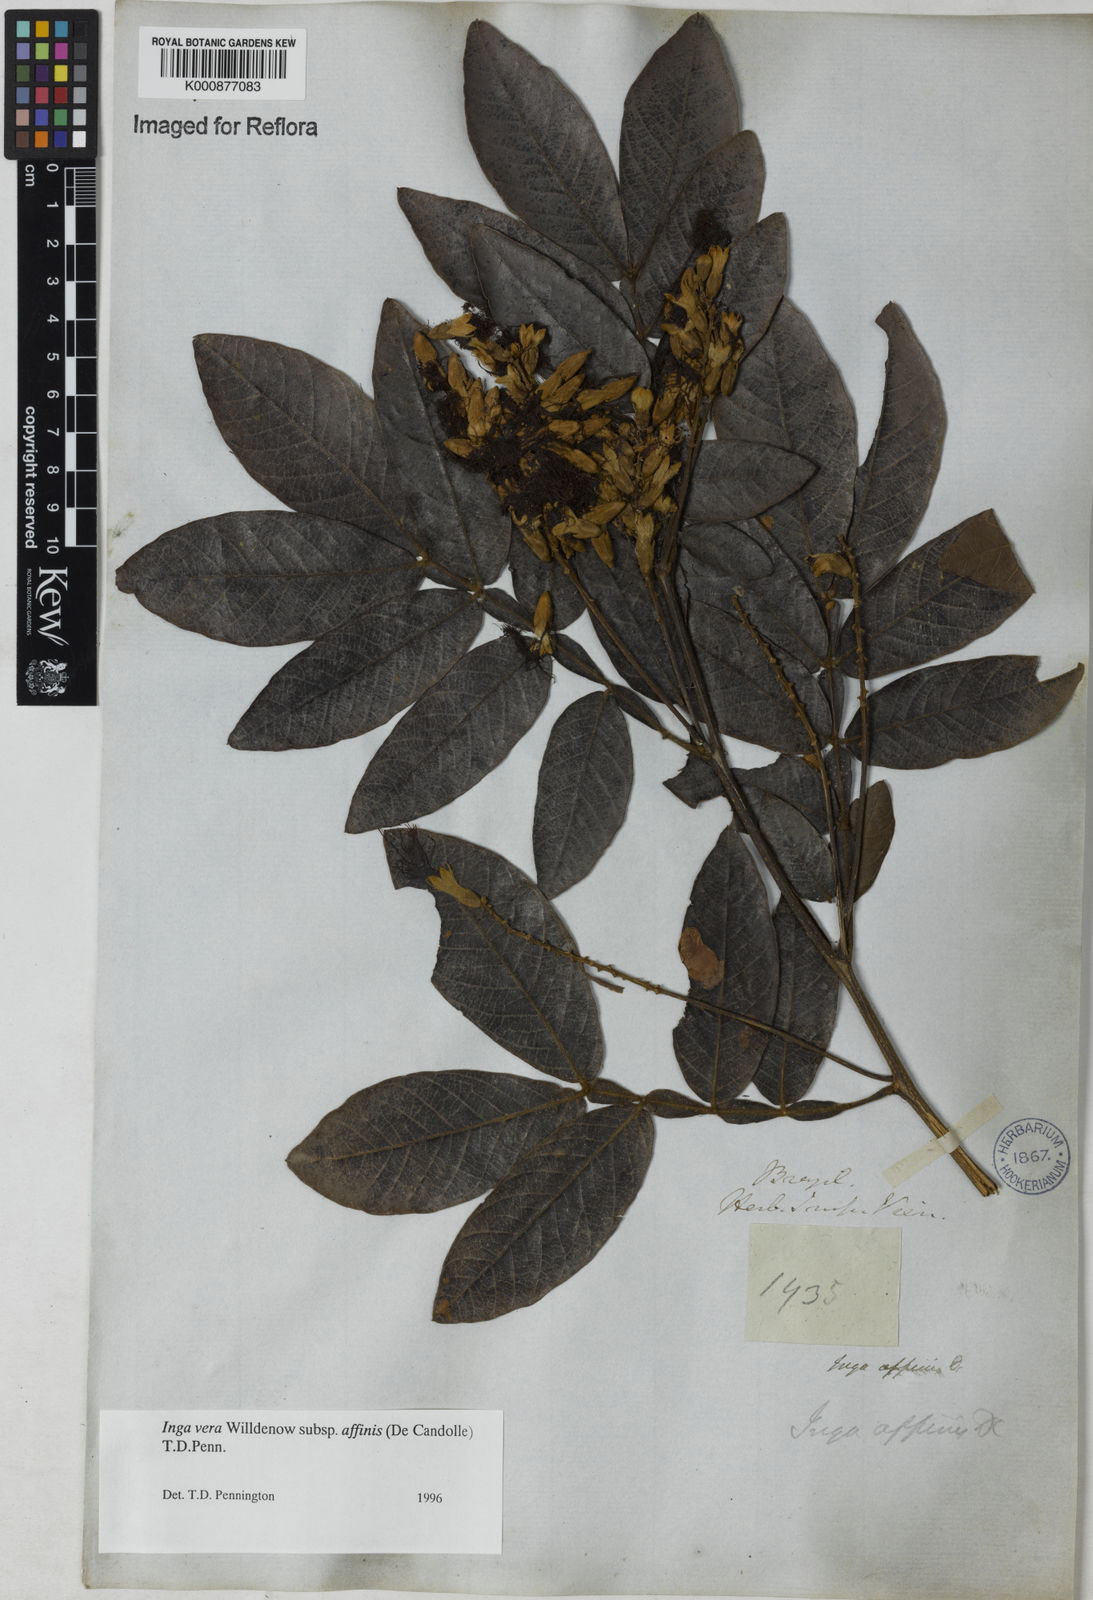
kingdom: Plantae
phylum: Tracheophyta
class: Magnoliopsida
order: Fabales
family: Fabaceae
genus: Inga
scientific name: Inga affinis
